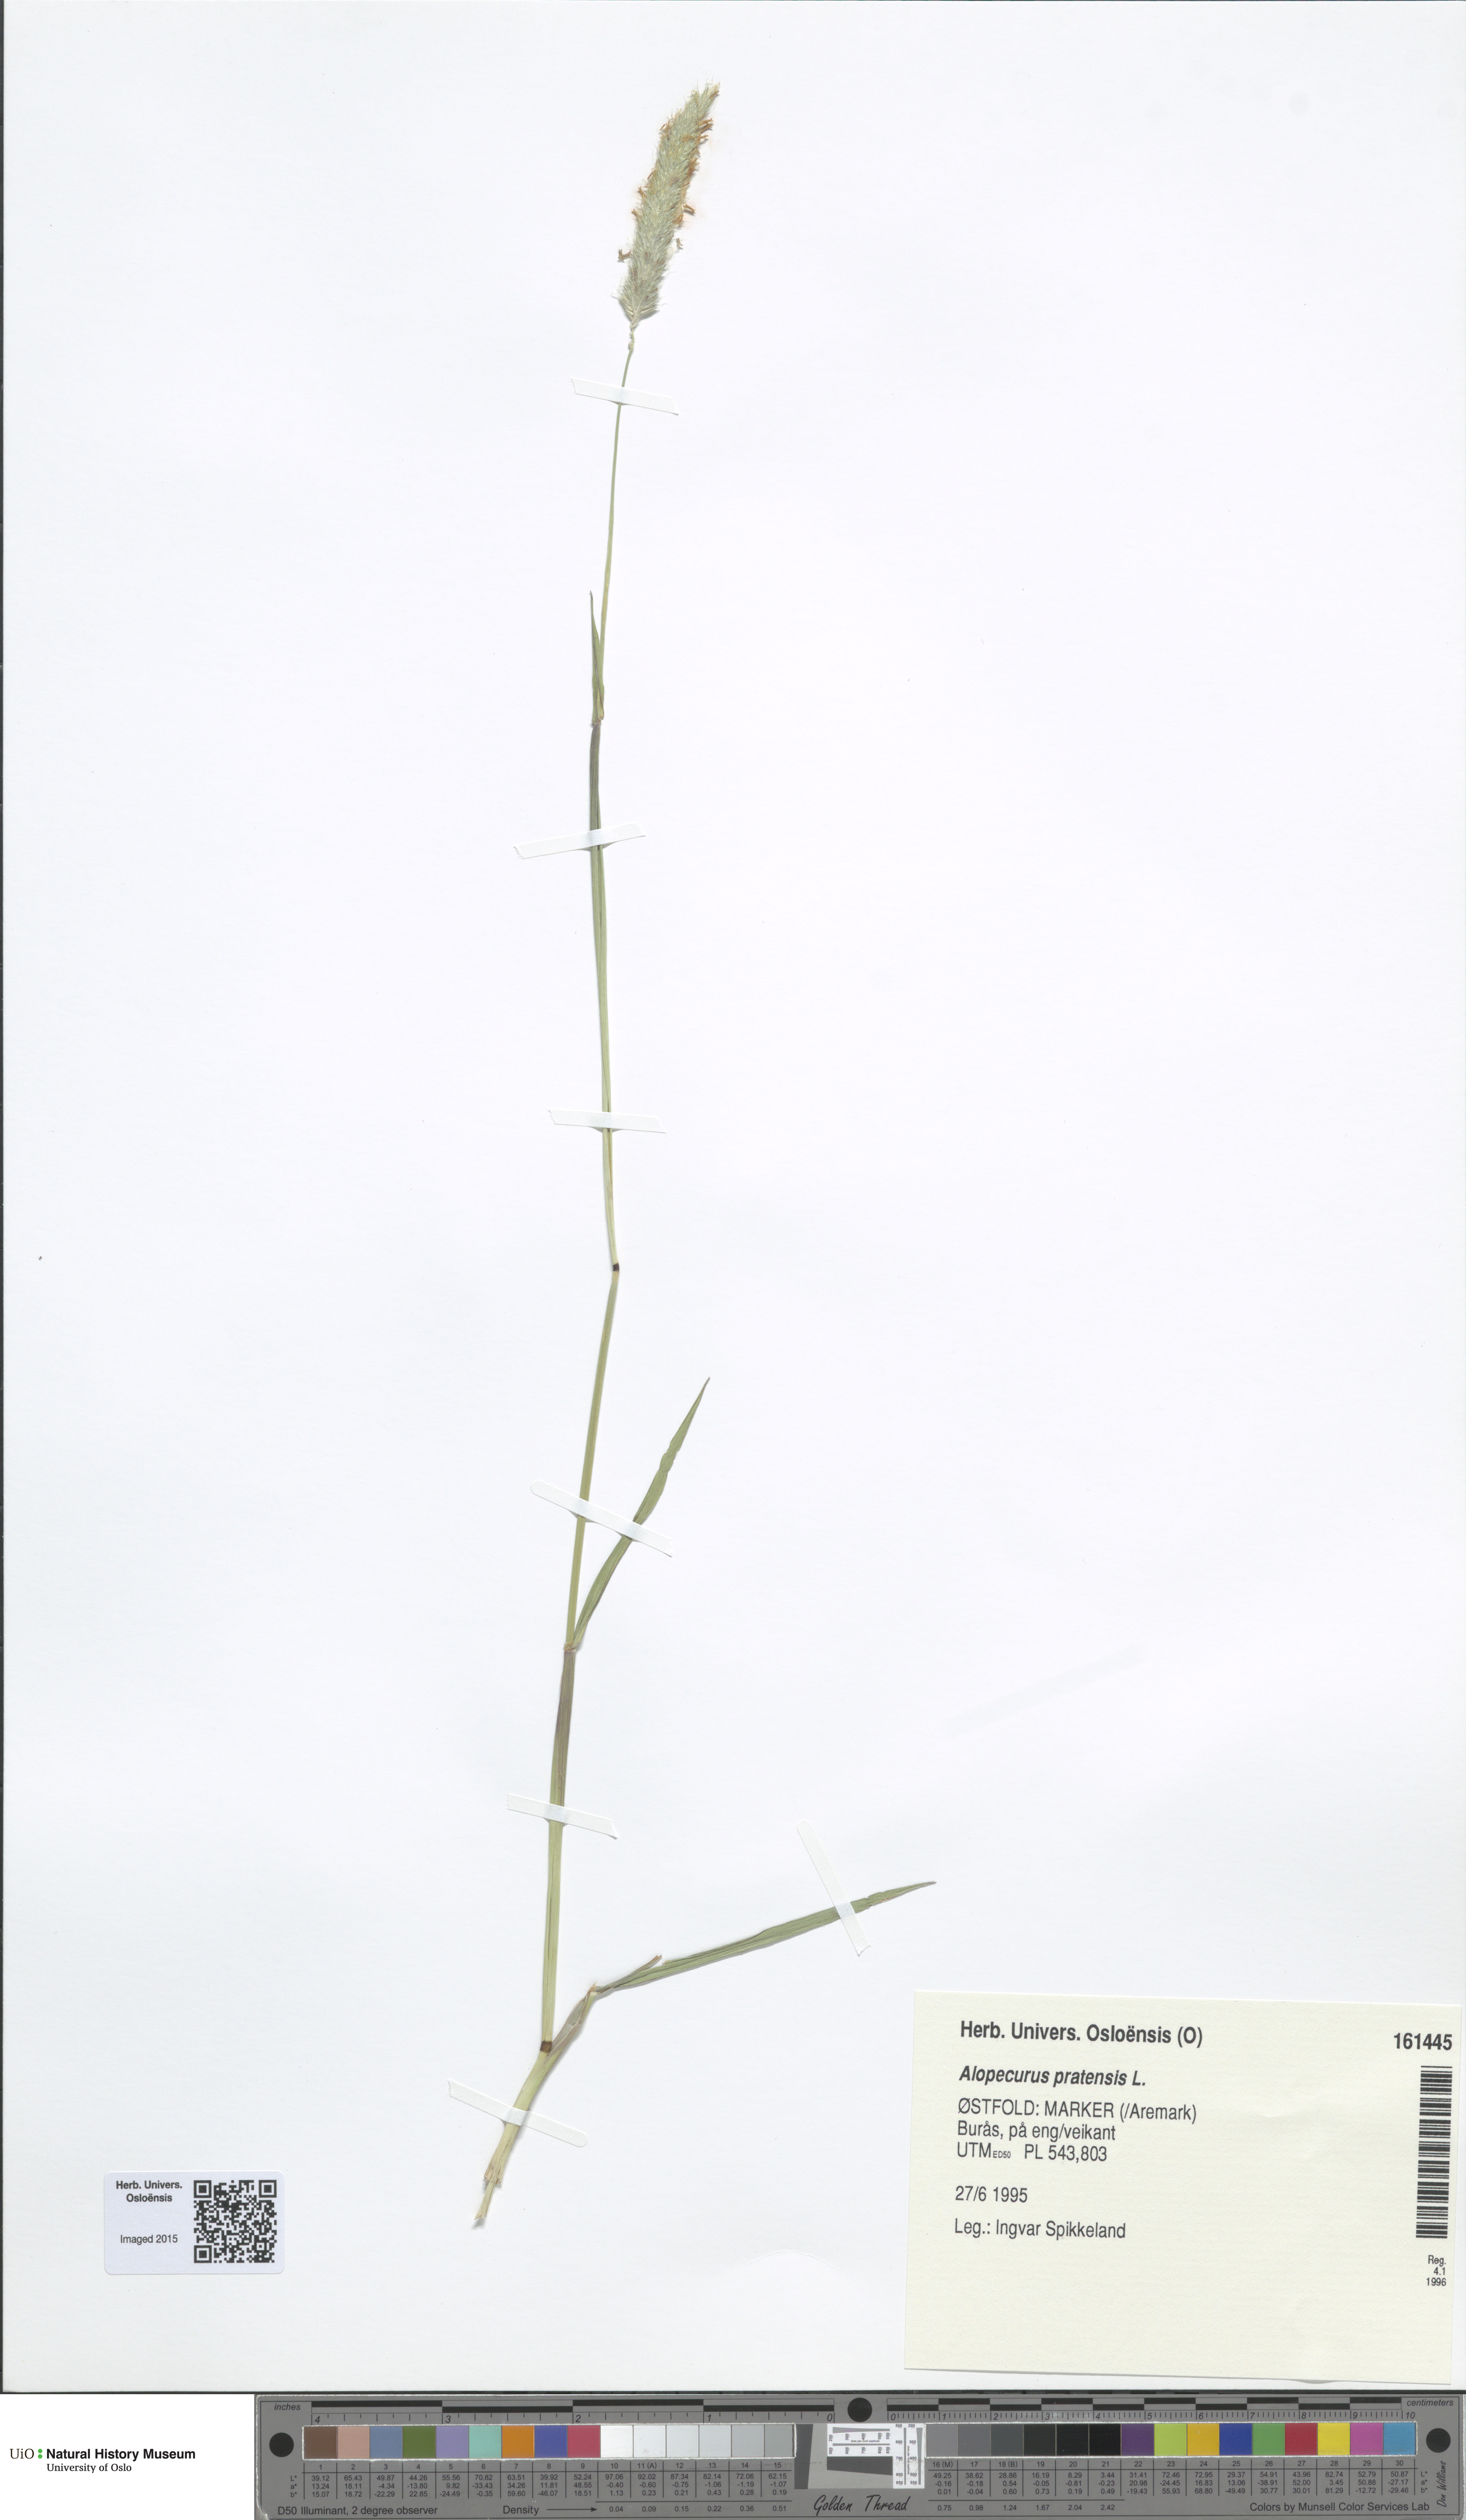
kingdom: Plantae
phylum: Tracheophyta
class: Liliopsida
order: Poales
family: Poaceae
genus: Alopecurus
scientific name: Alopecurus pratensis
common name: Meadow foxtail
